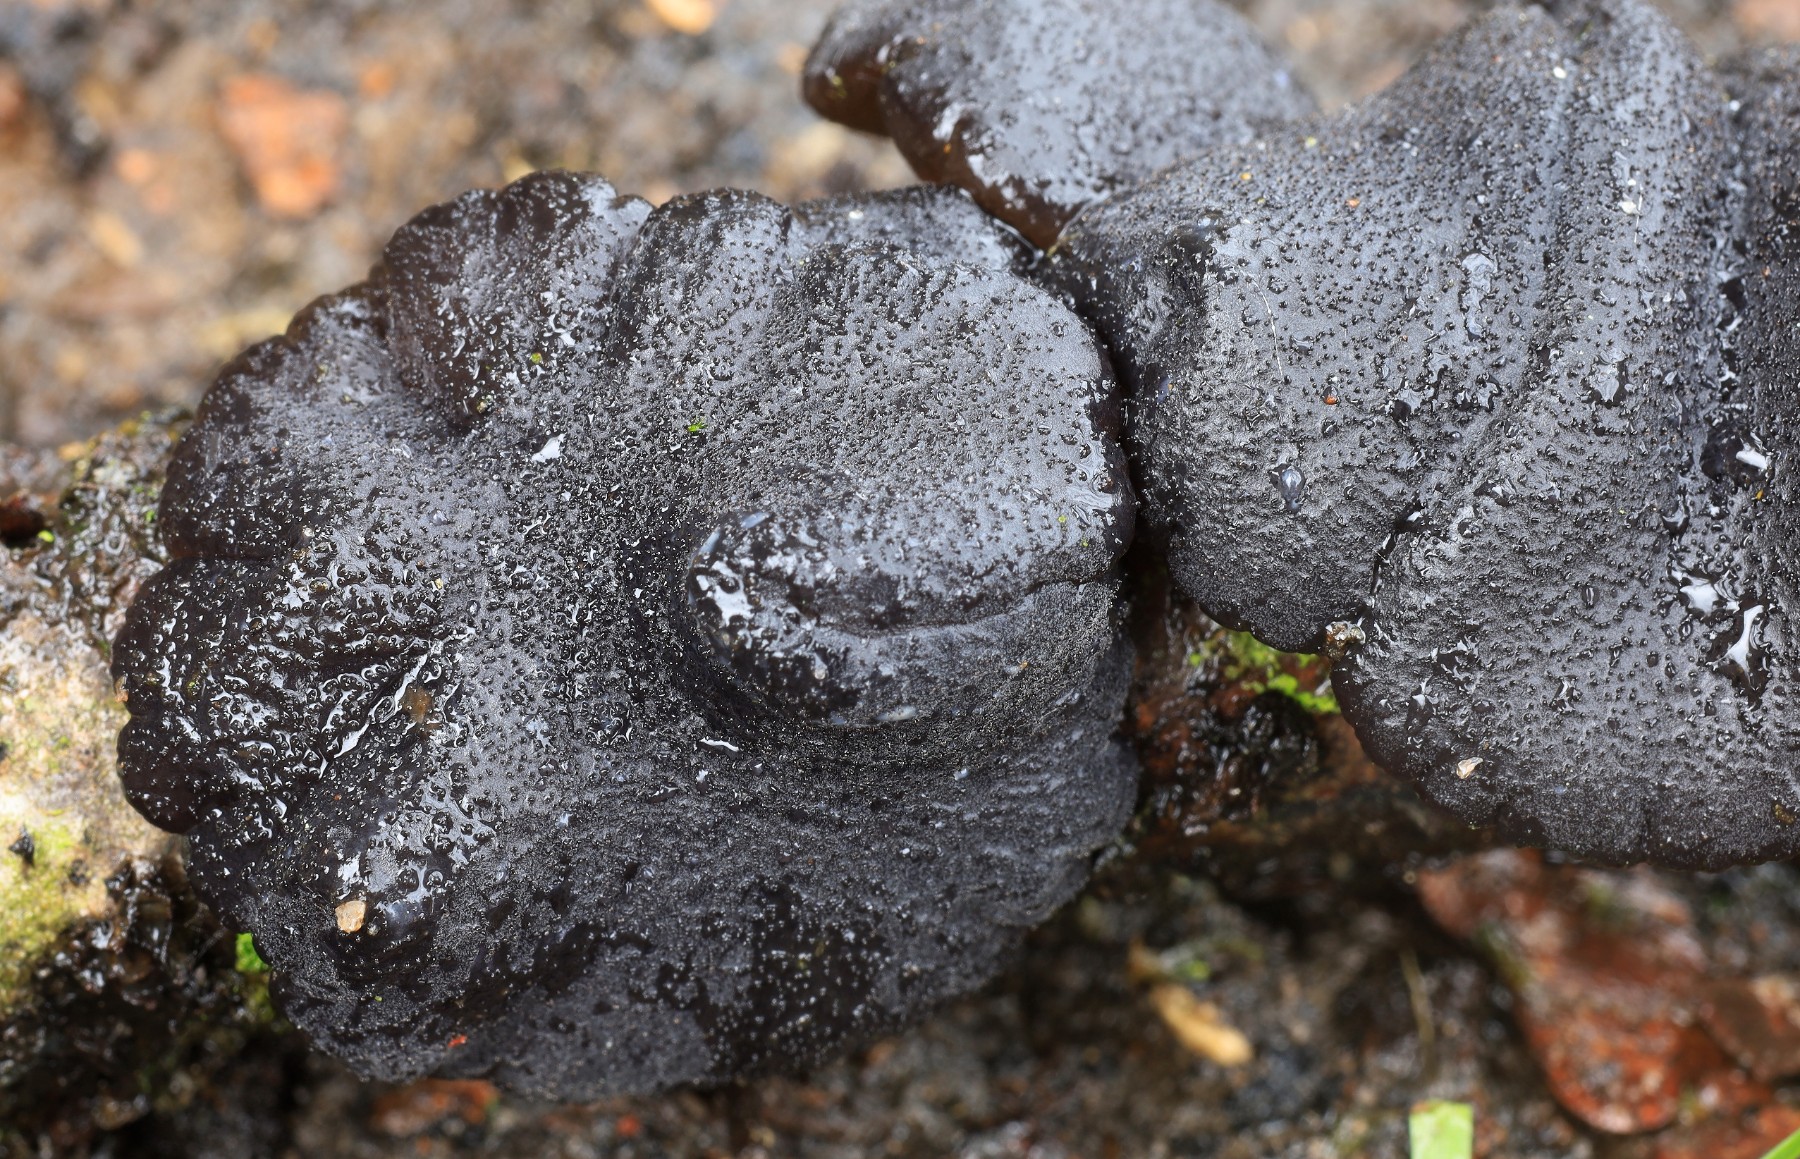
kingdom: Fungi
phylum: Basidiomycota
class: Agaricomycetes
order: Auriculariales
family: Auriculariaceae
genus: Exidia
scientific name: Exidia glandulosa
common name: ege-bævretop
